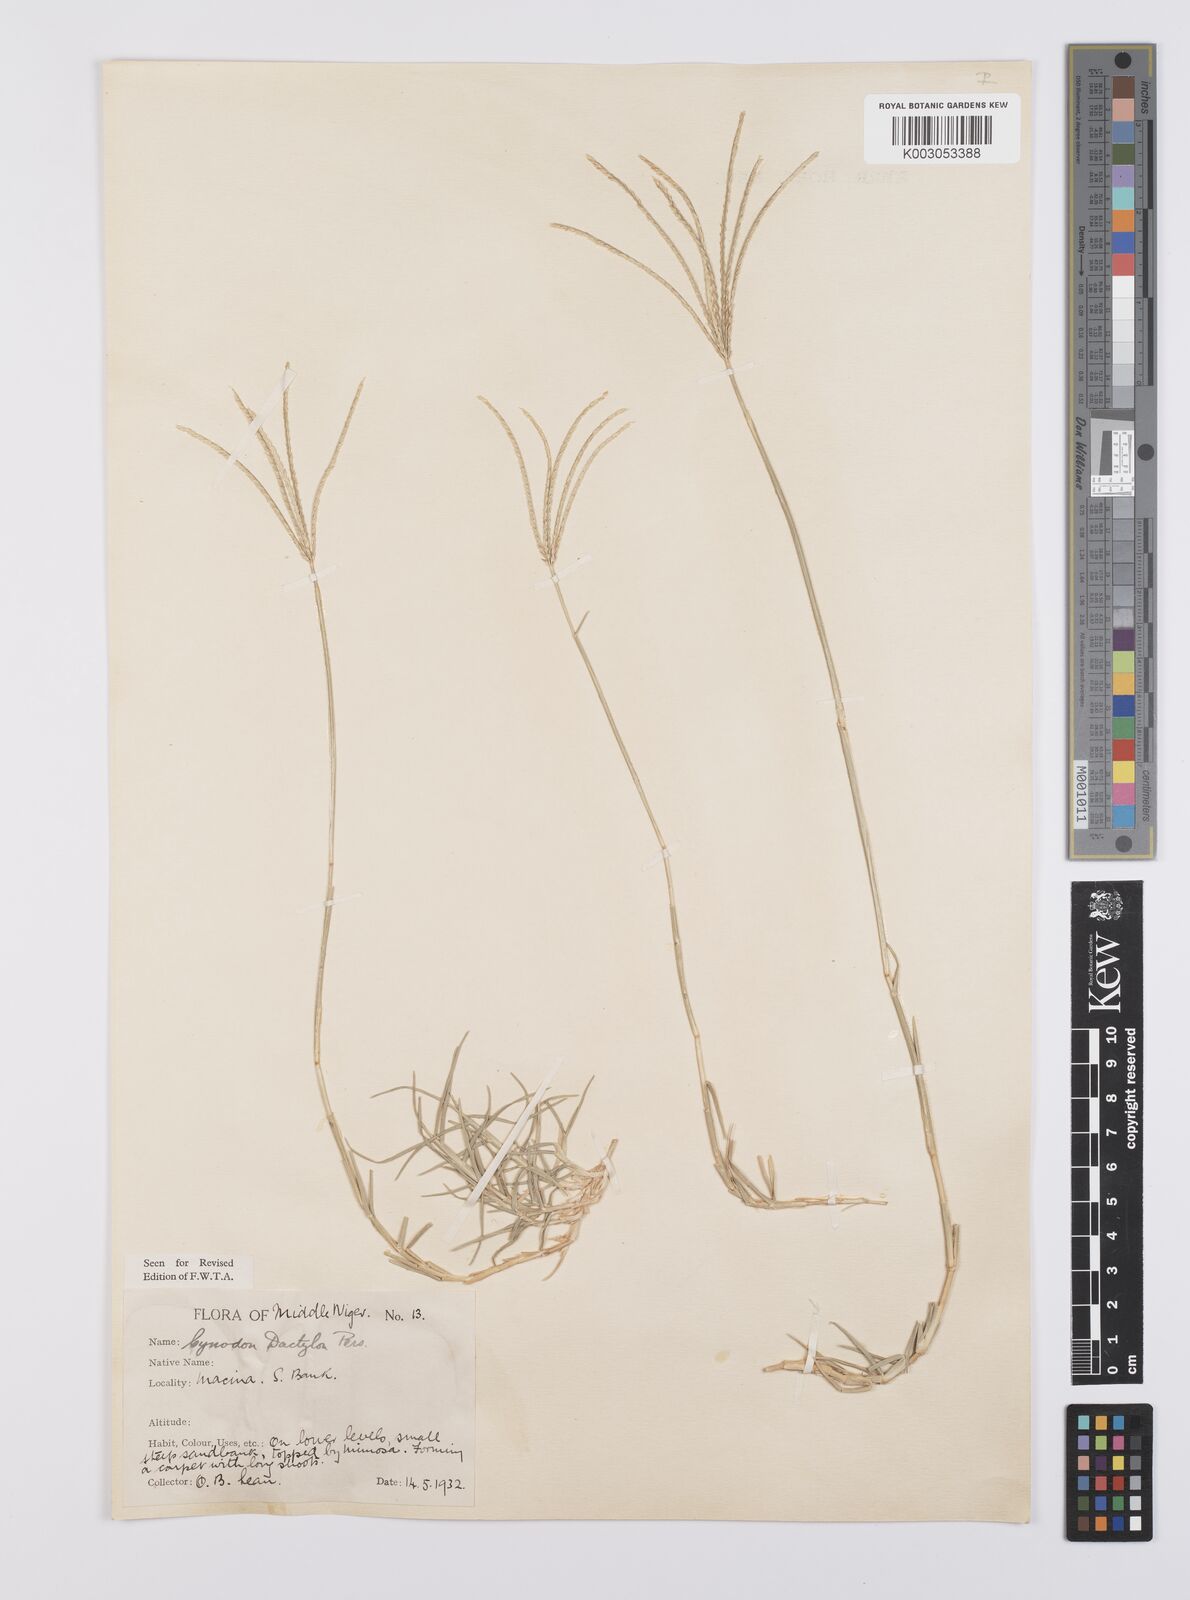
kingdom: Plantae
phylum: Tracheophyta
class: Liliopsida
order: Poales
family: Poaceae
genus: Cynodon
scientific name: Cynodon dactylon
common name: Bermuda grass
